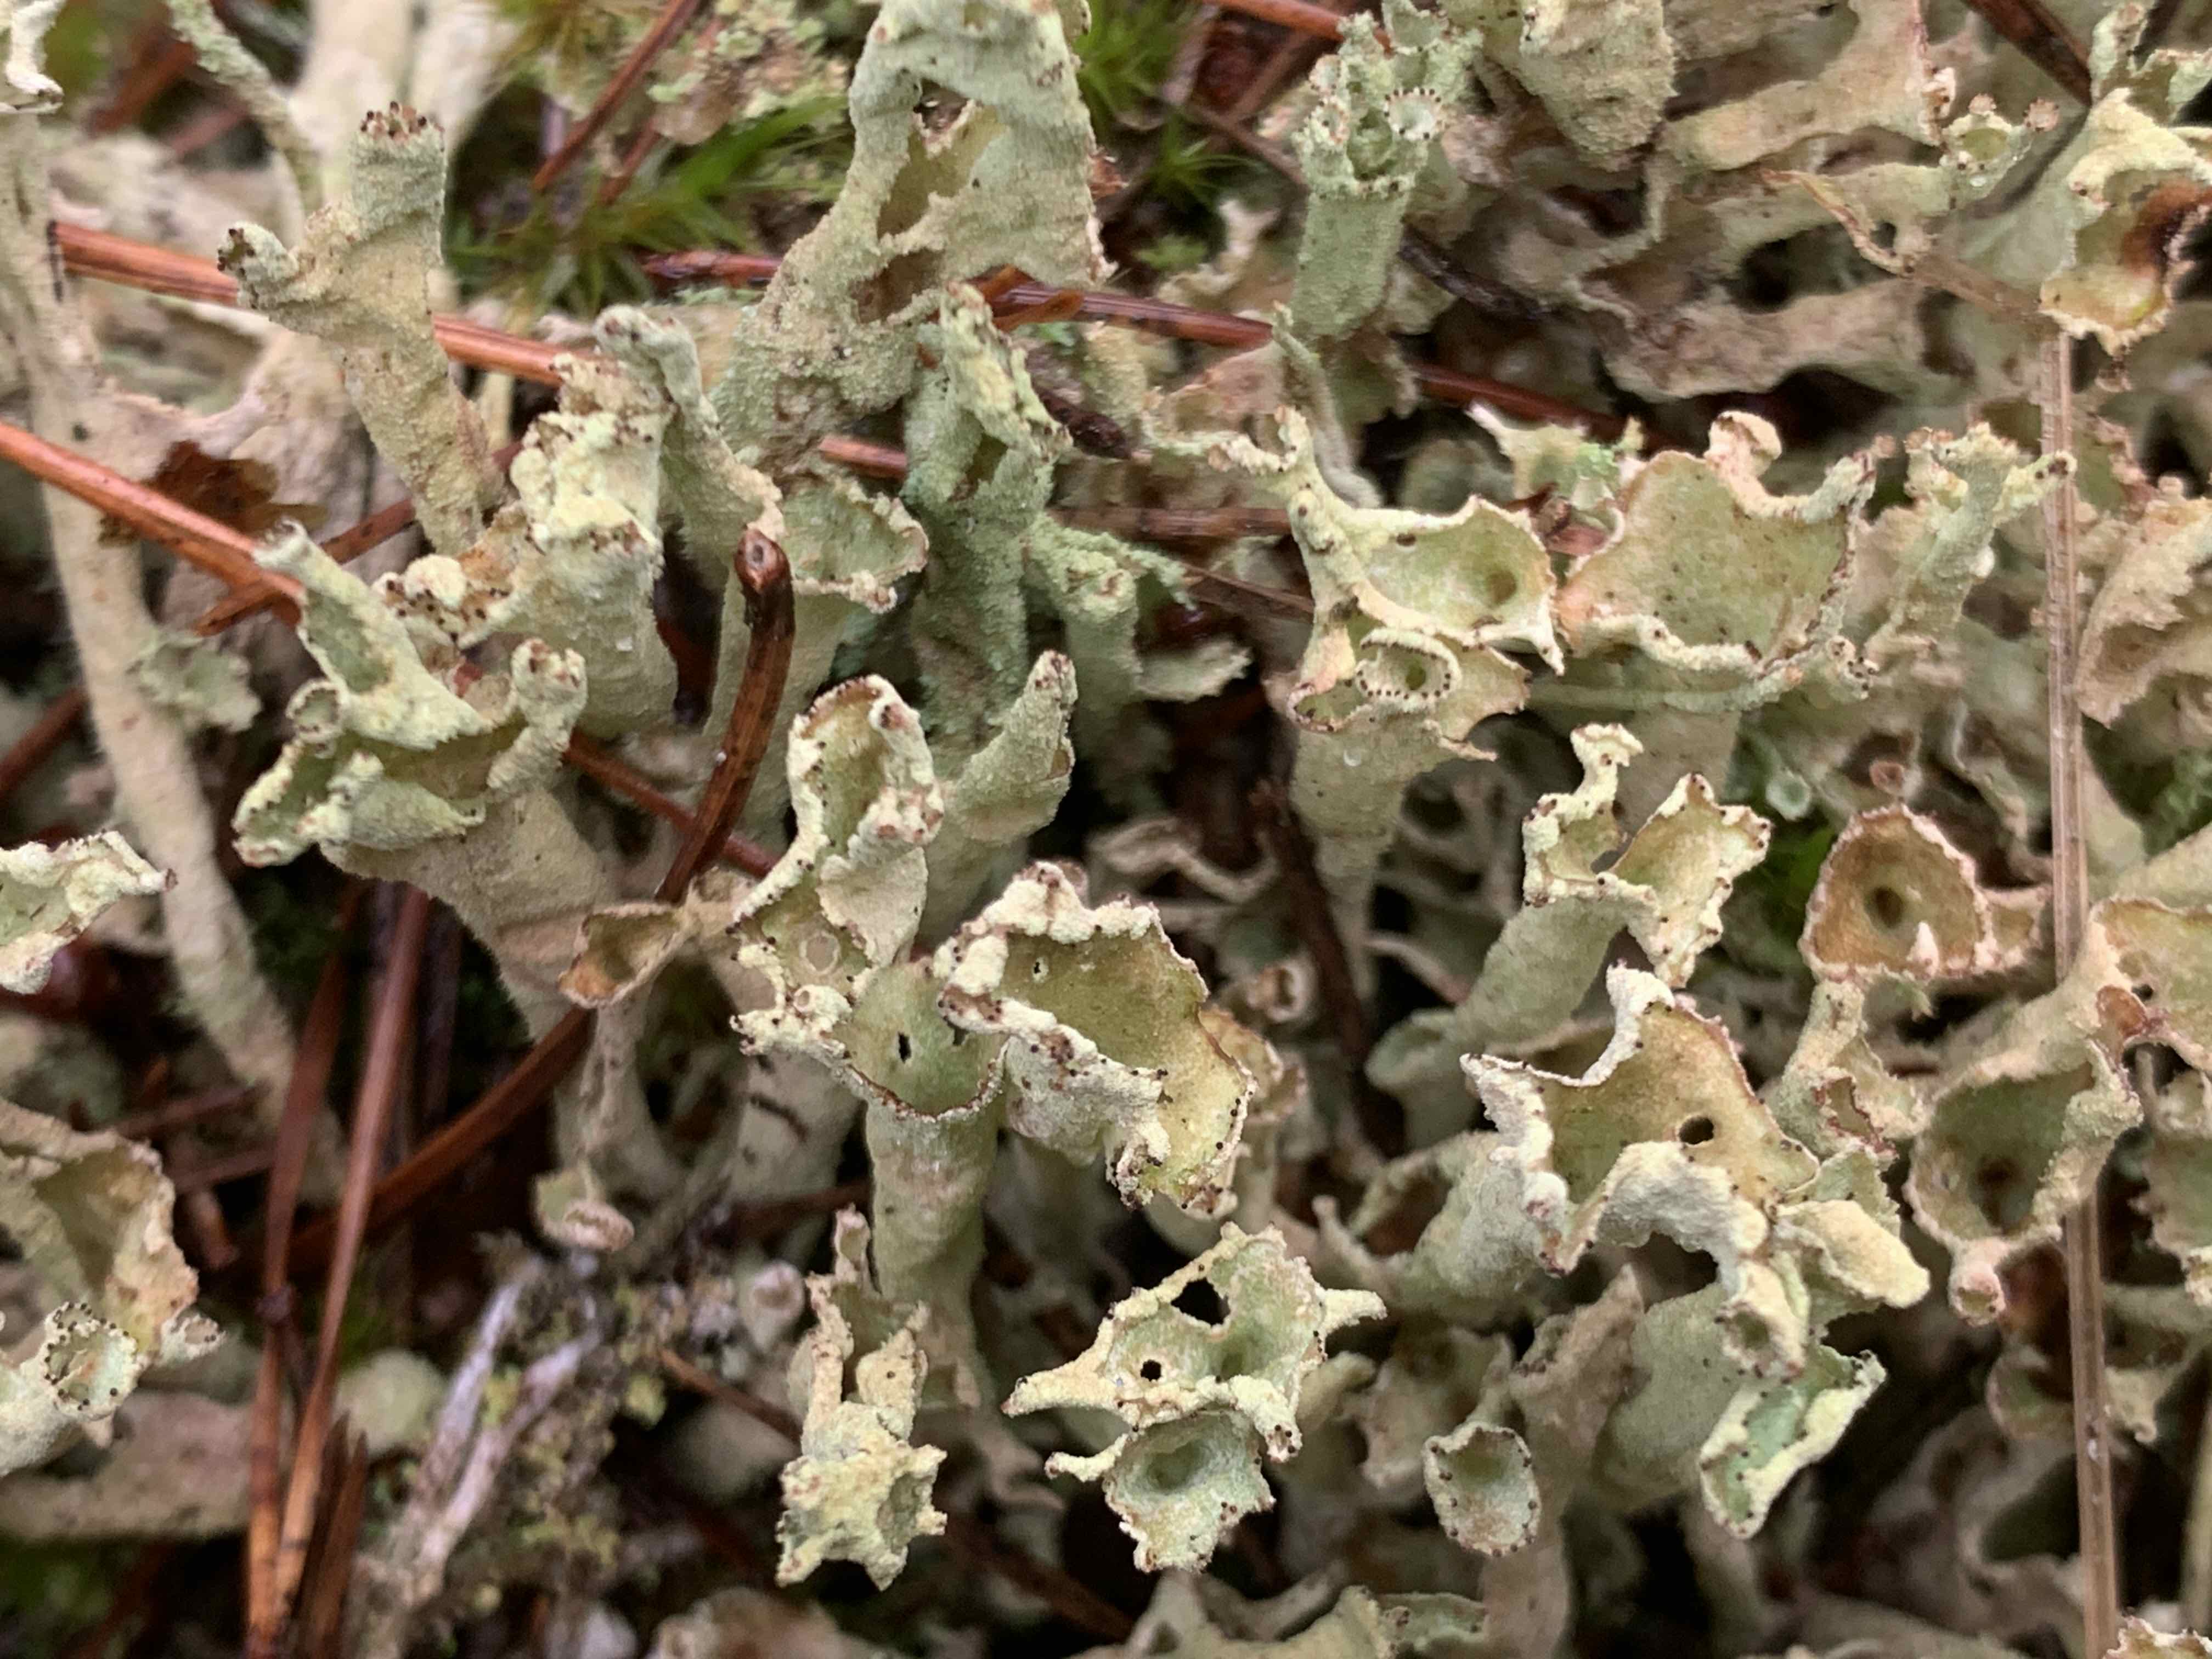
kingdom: Fungi
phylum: Ascomycota
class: Lecanoromycetes
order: Lecanorales
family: Cladoniaceae
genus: Cladonia
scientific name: Cladonia cenotea
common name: pudret bægerlav
